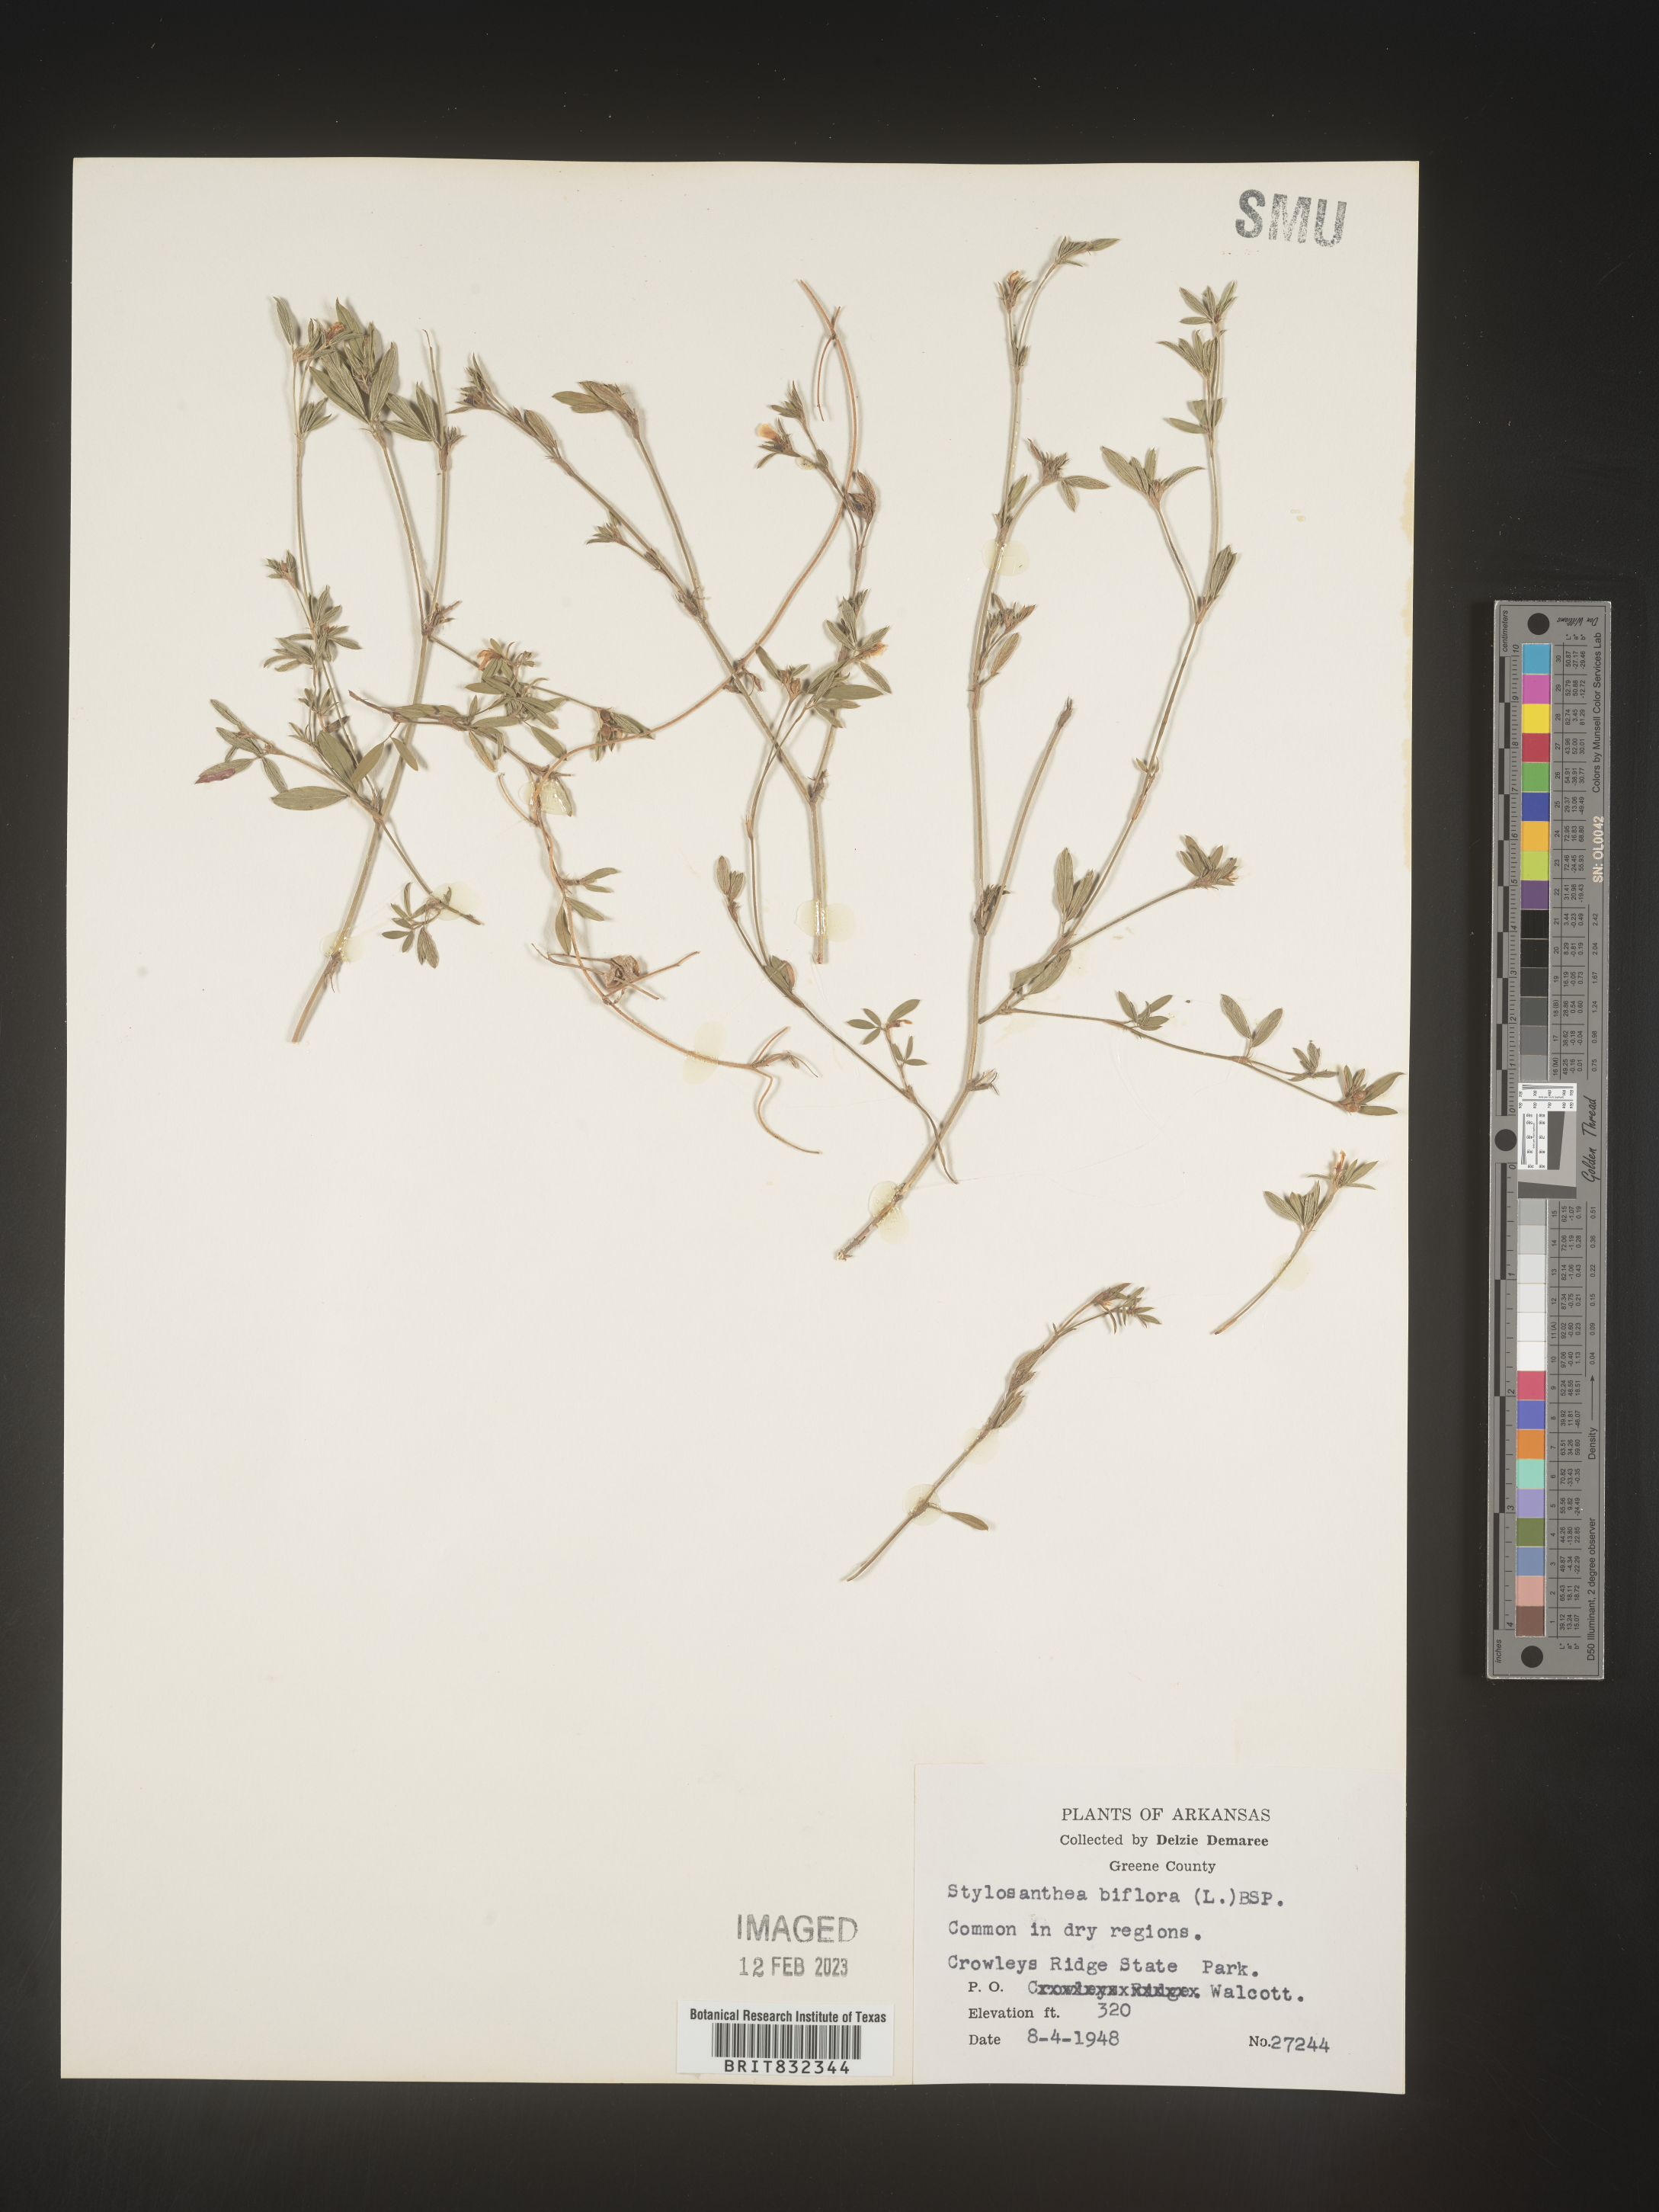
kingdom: Plantae
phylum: Tracheophyta
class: Magnoliopsida
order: Fabales
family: Fabaceae
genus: Stylosanthes
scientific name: Stylosanthes biflora
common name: Two-flower pencil-flower
